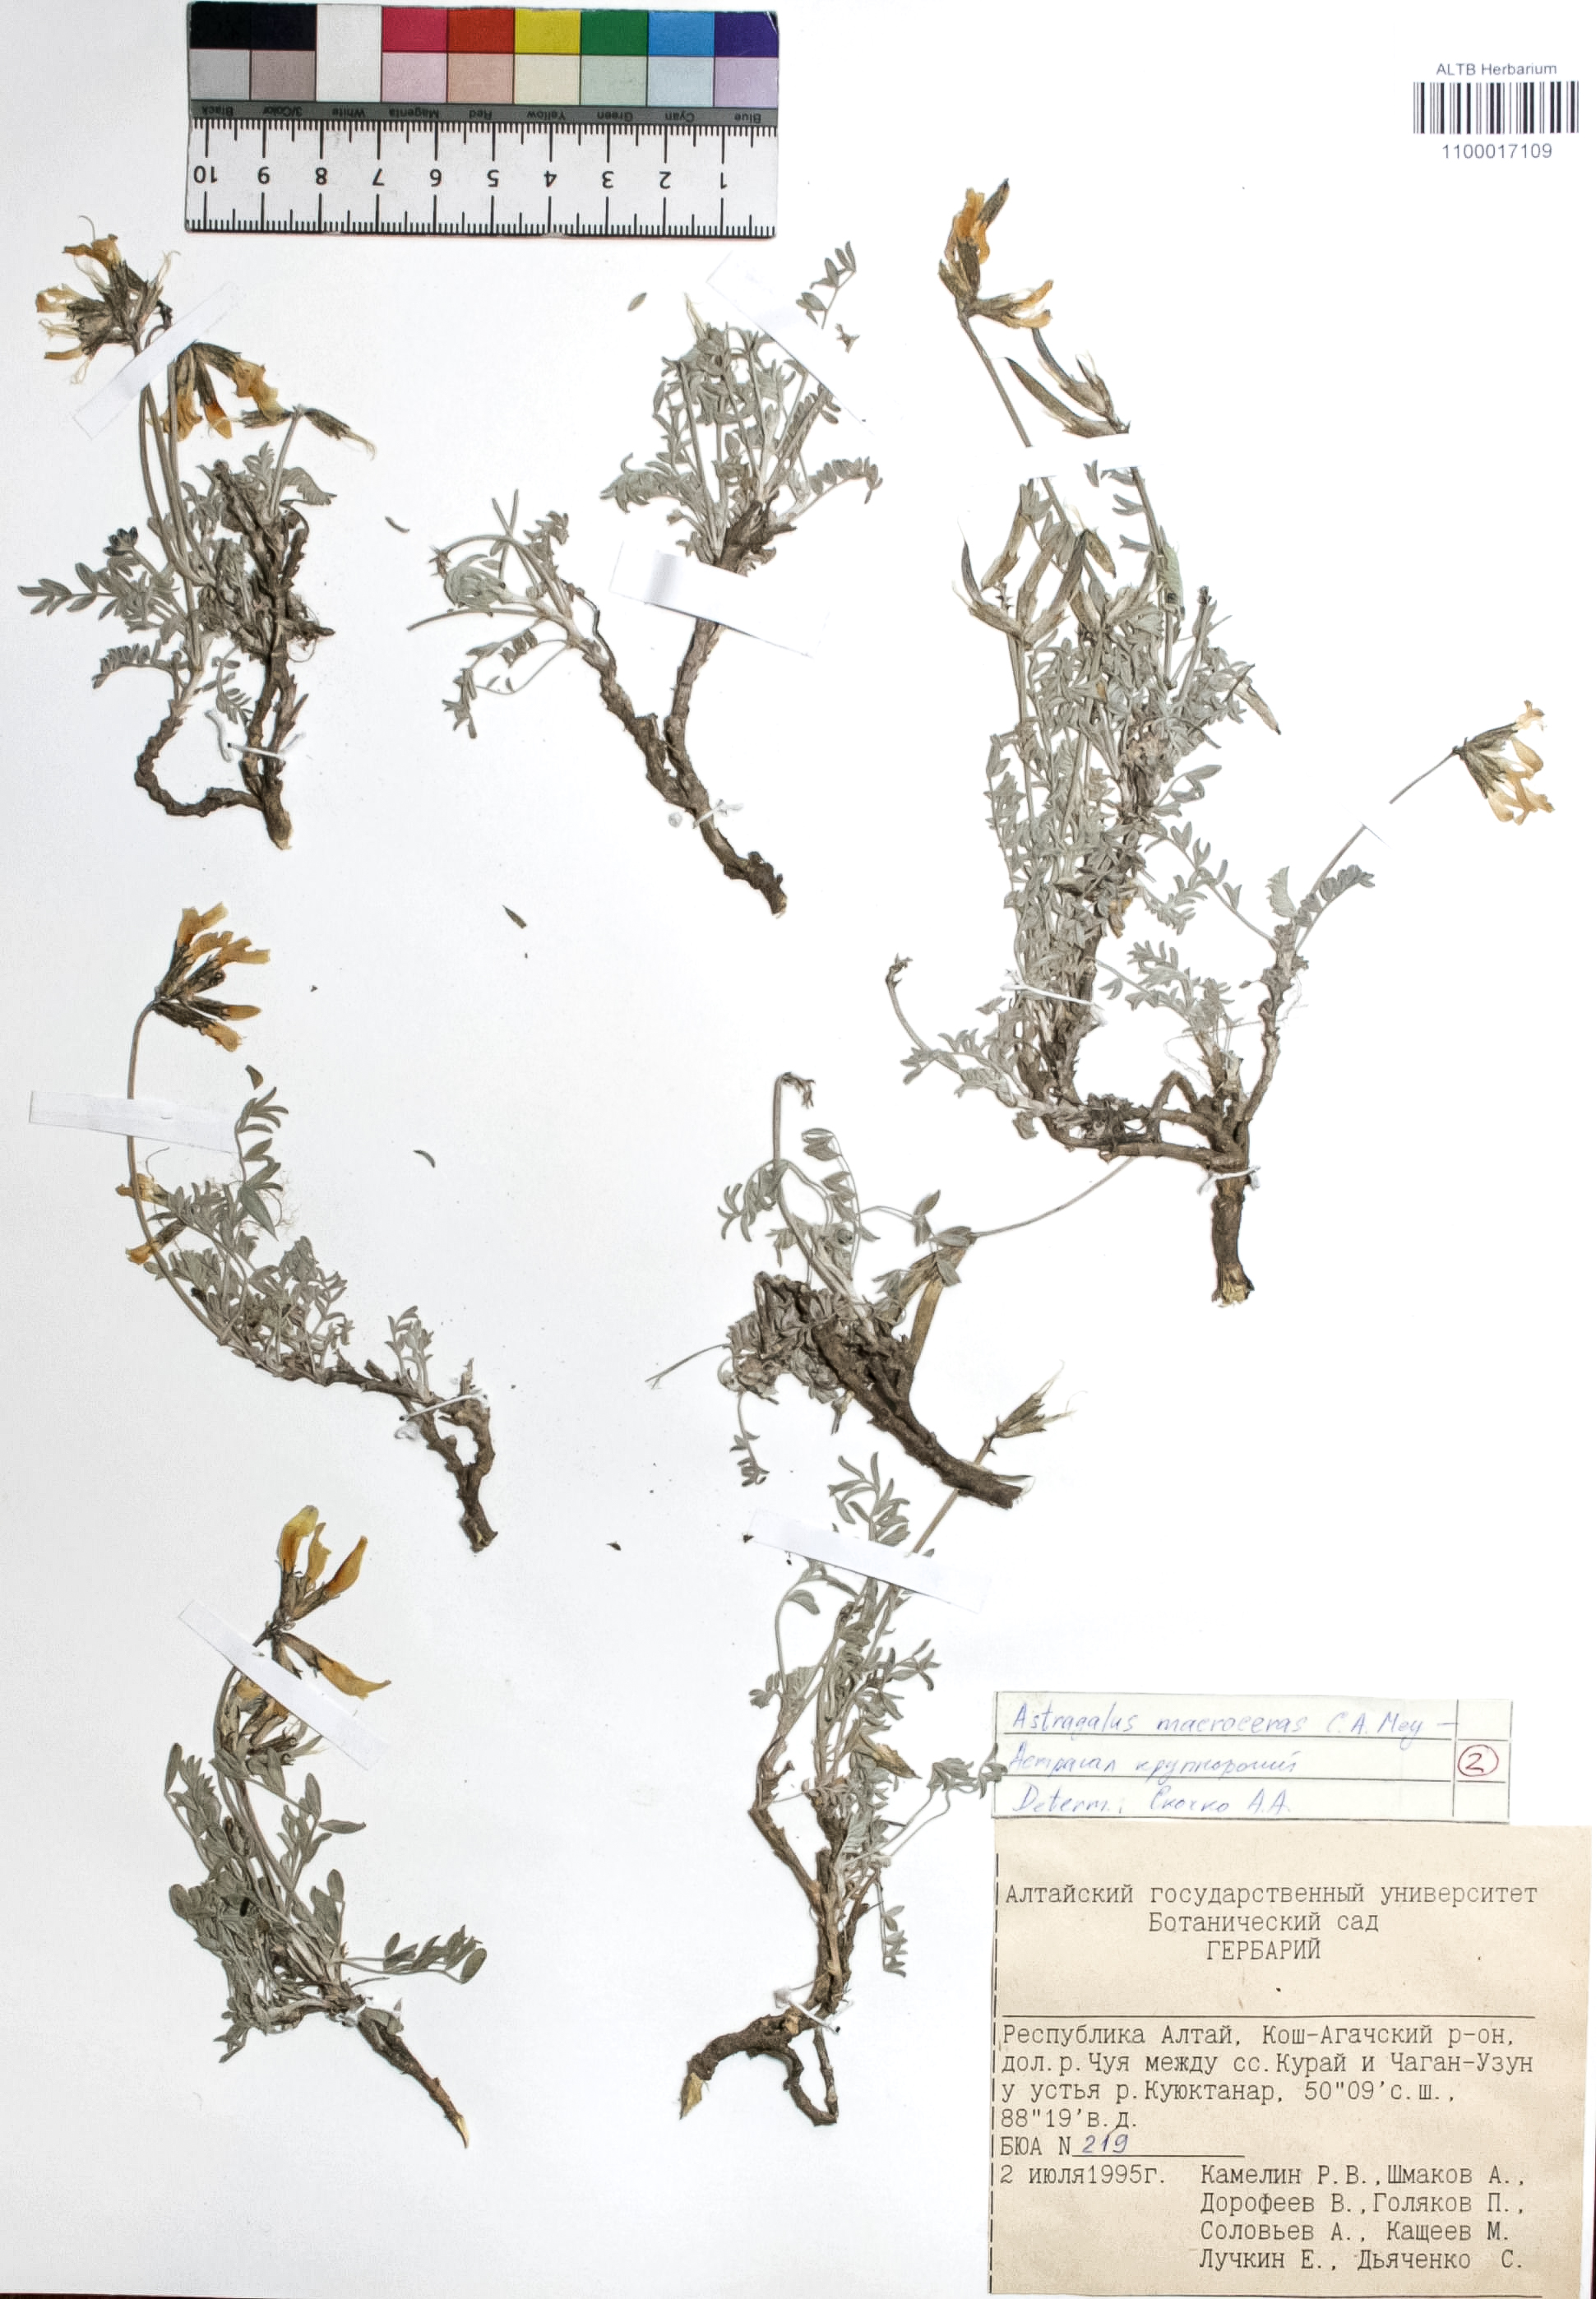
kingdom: Plantae
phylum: Tracheophyta
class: Magnoliopsida
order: Fabales
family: Fabaceae
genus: Astragalus
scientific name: Astragalus macroceras
